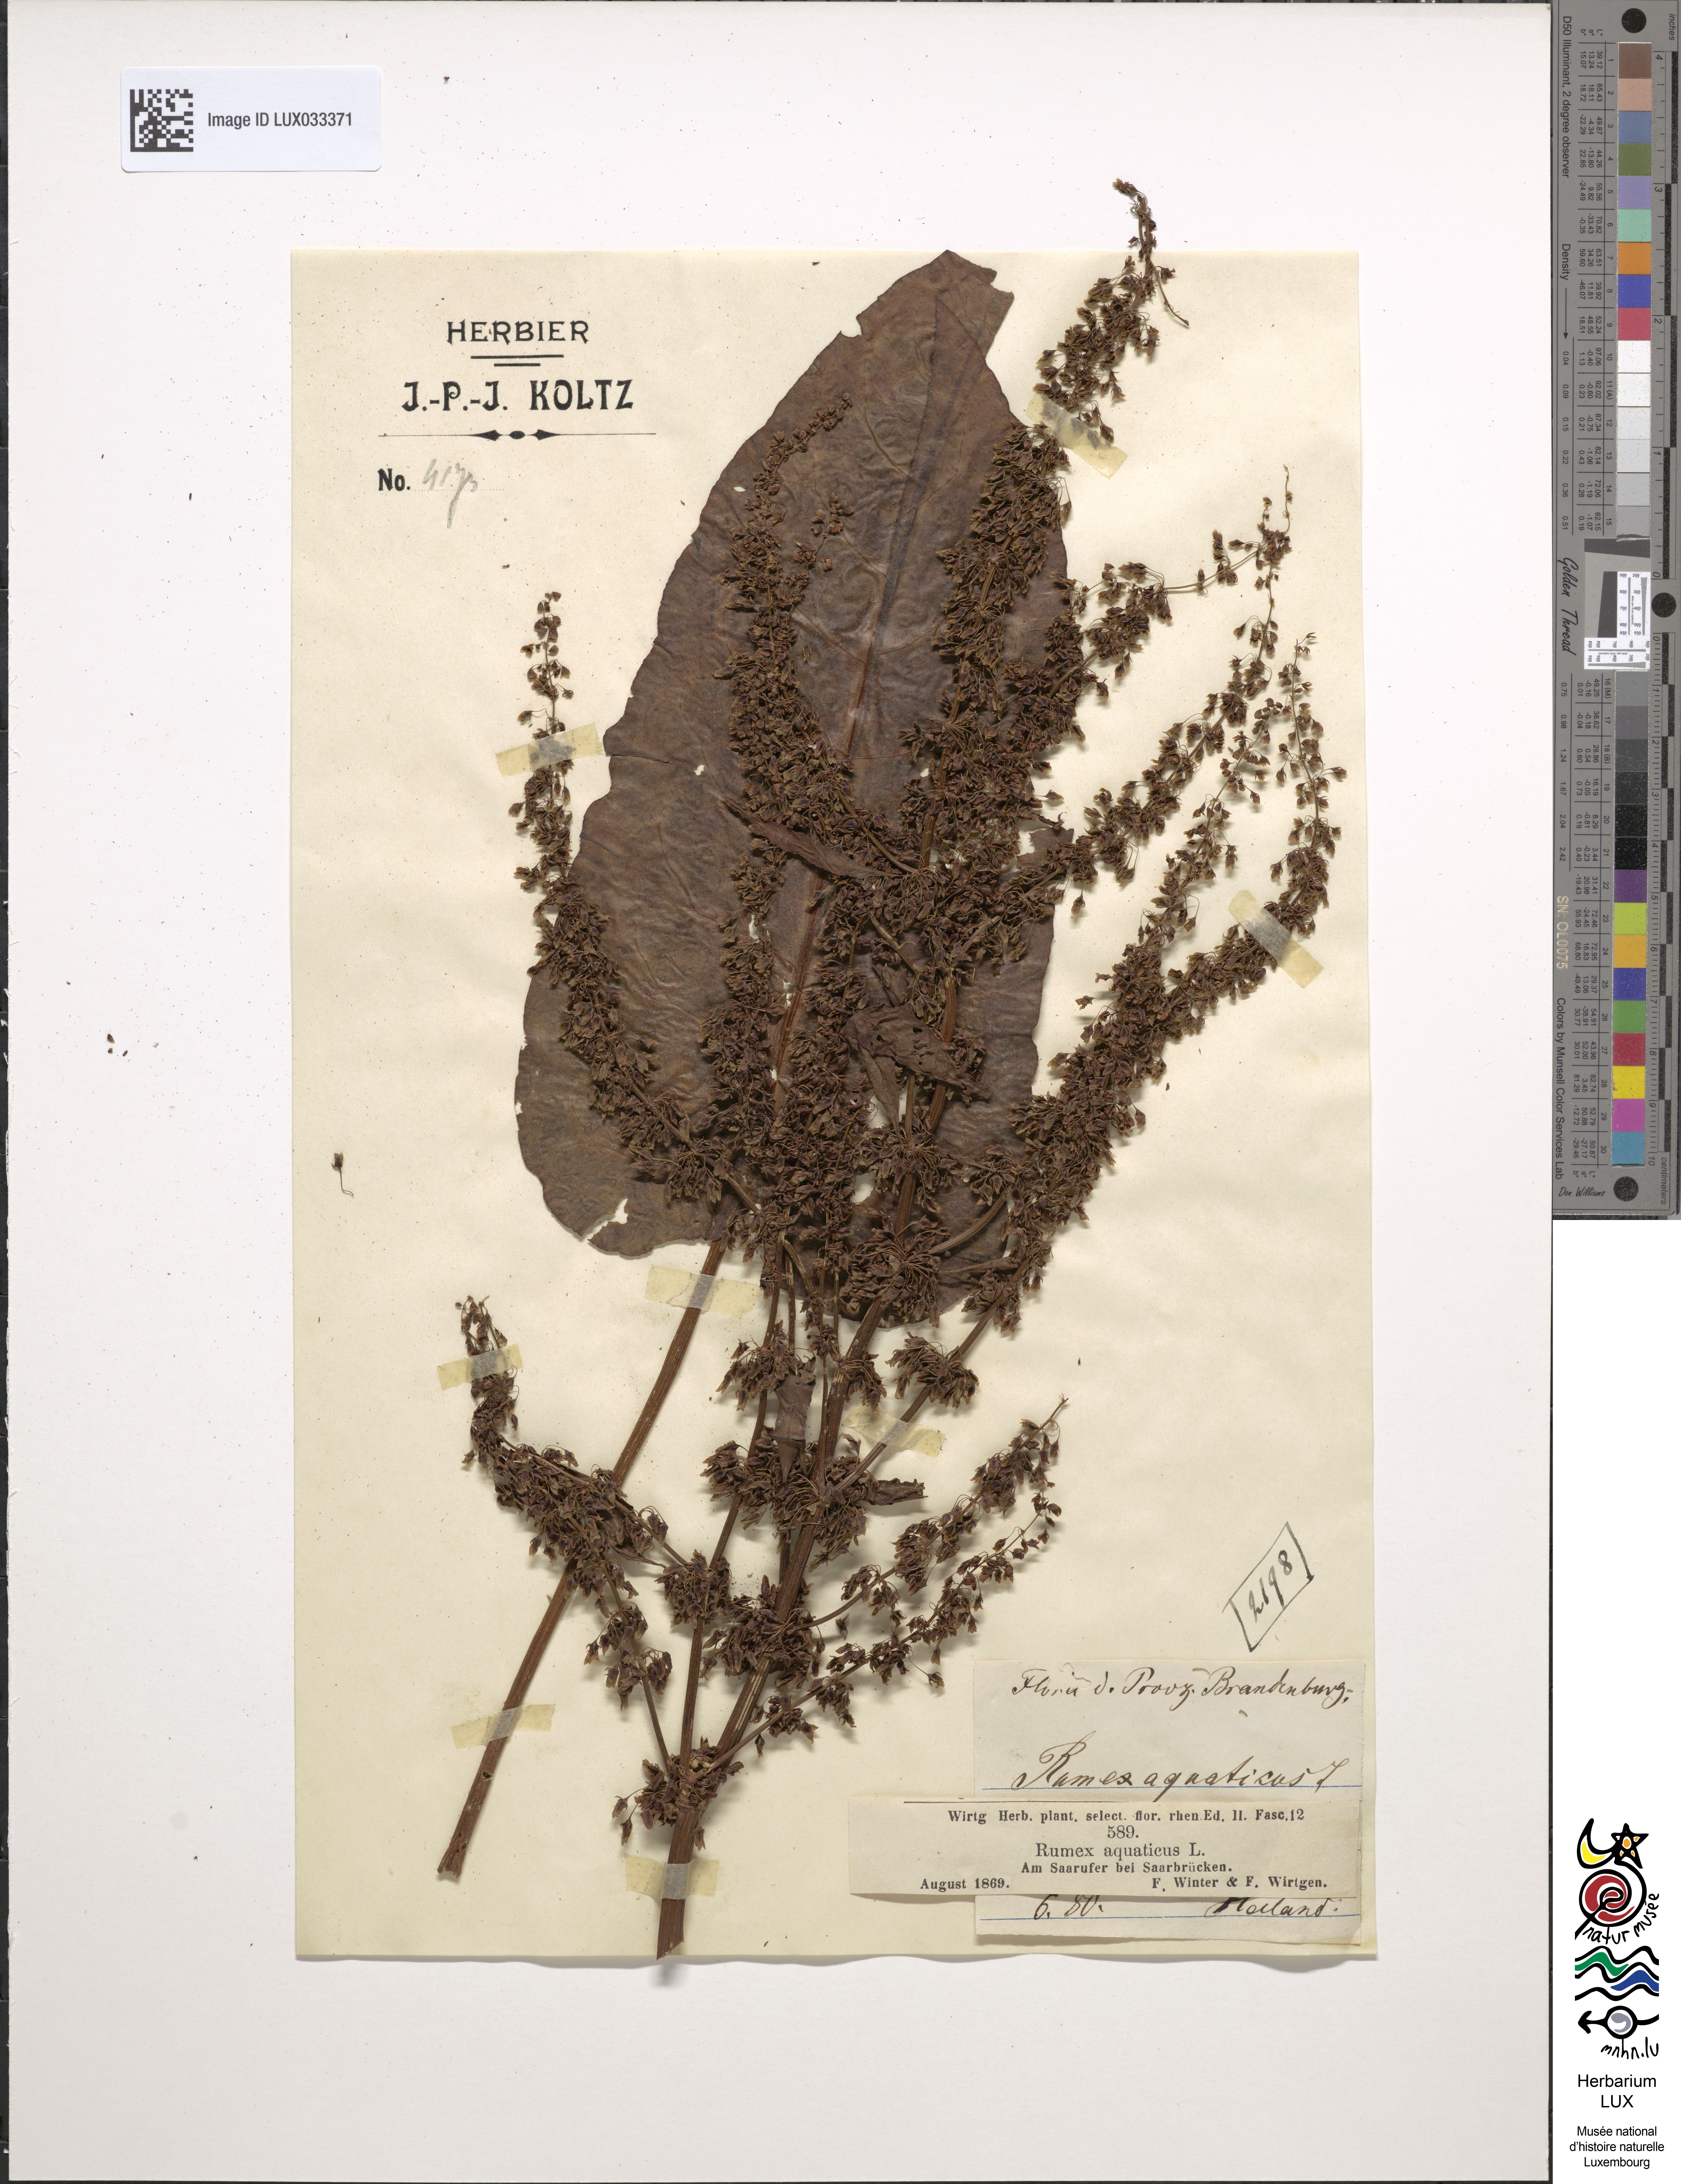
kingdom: Plantae
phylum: Tracheophyta
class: Magnoliopsida
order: Caryophyllales
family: Polygonaceae
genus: Rumex
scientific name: Rumex aquaticus
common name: Scottish dock
